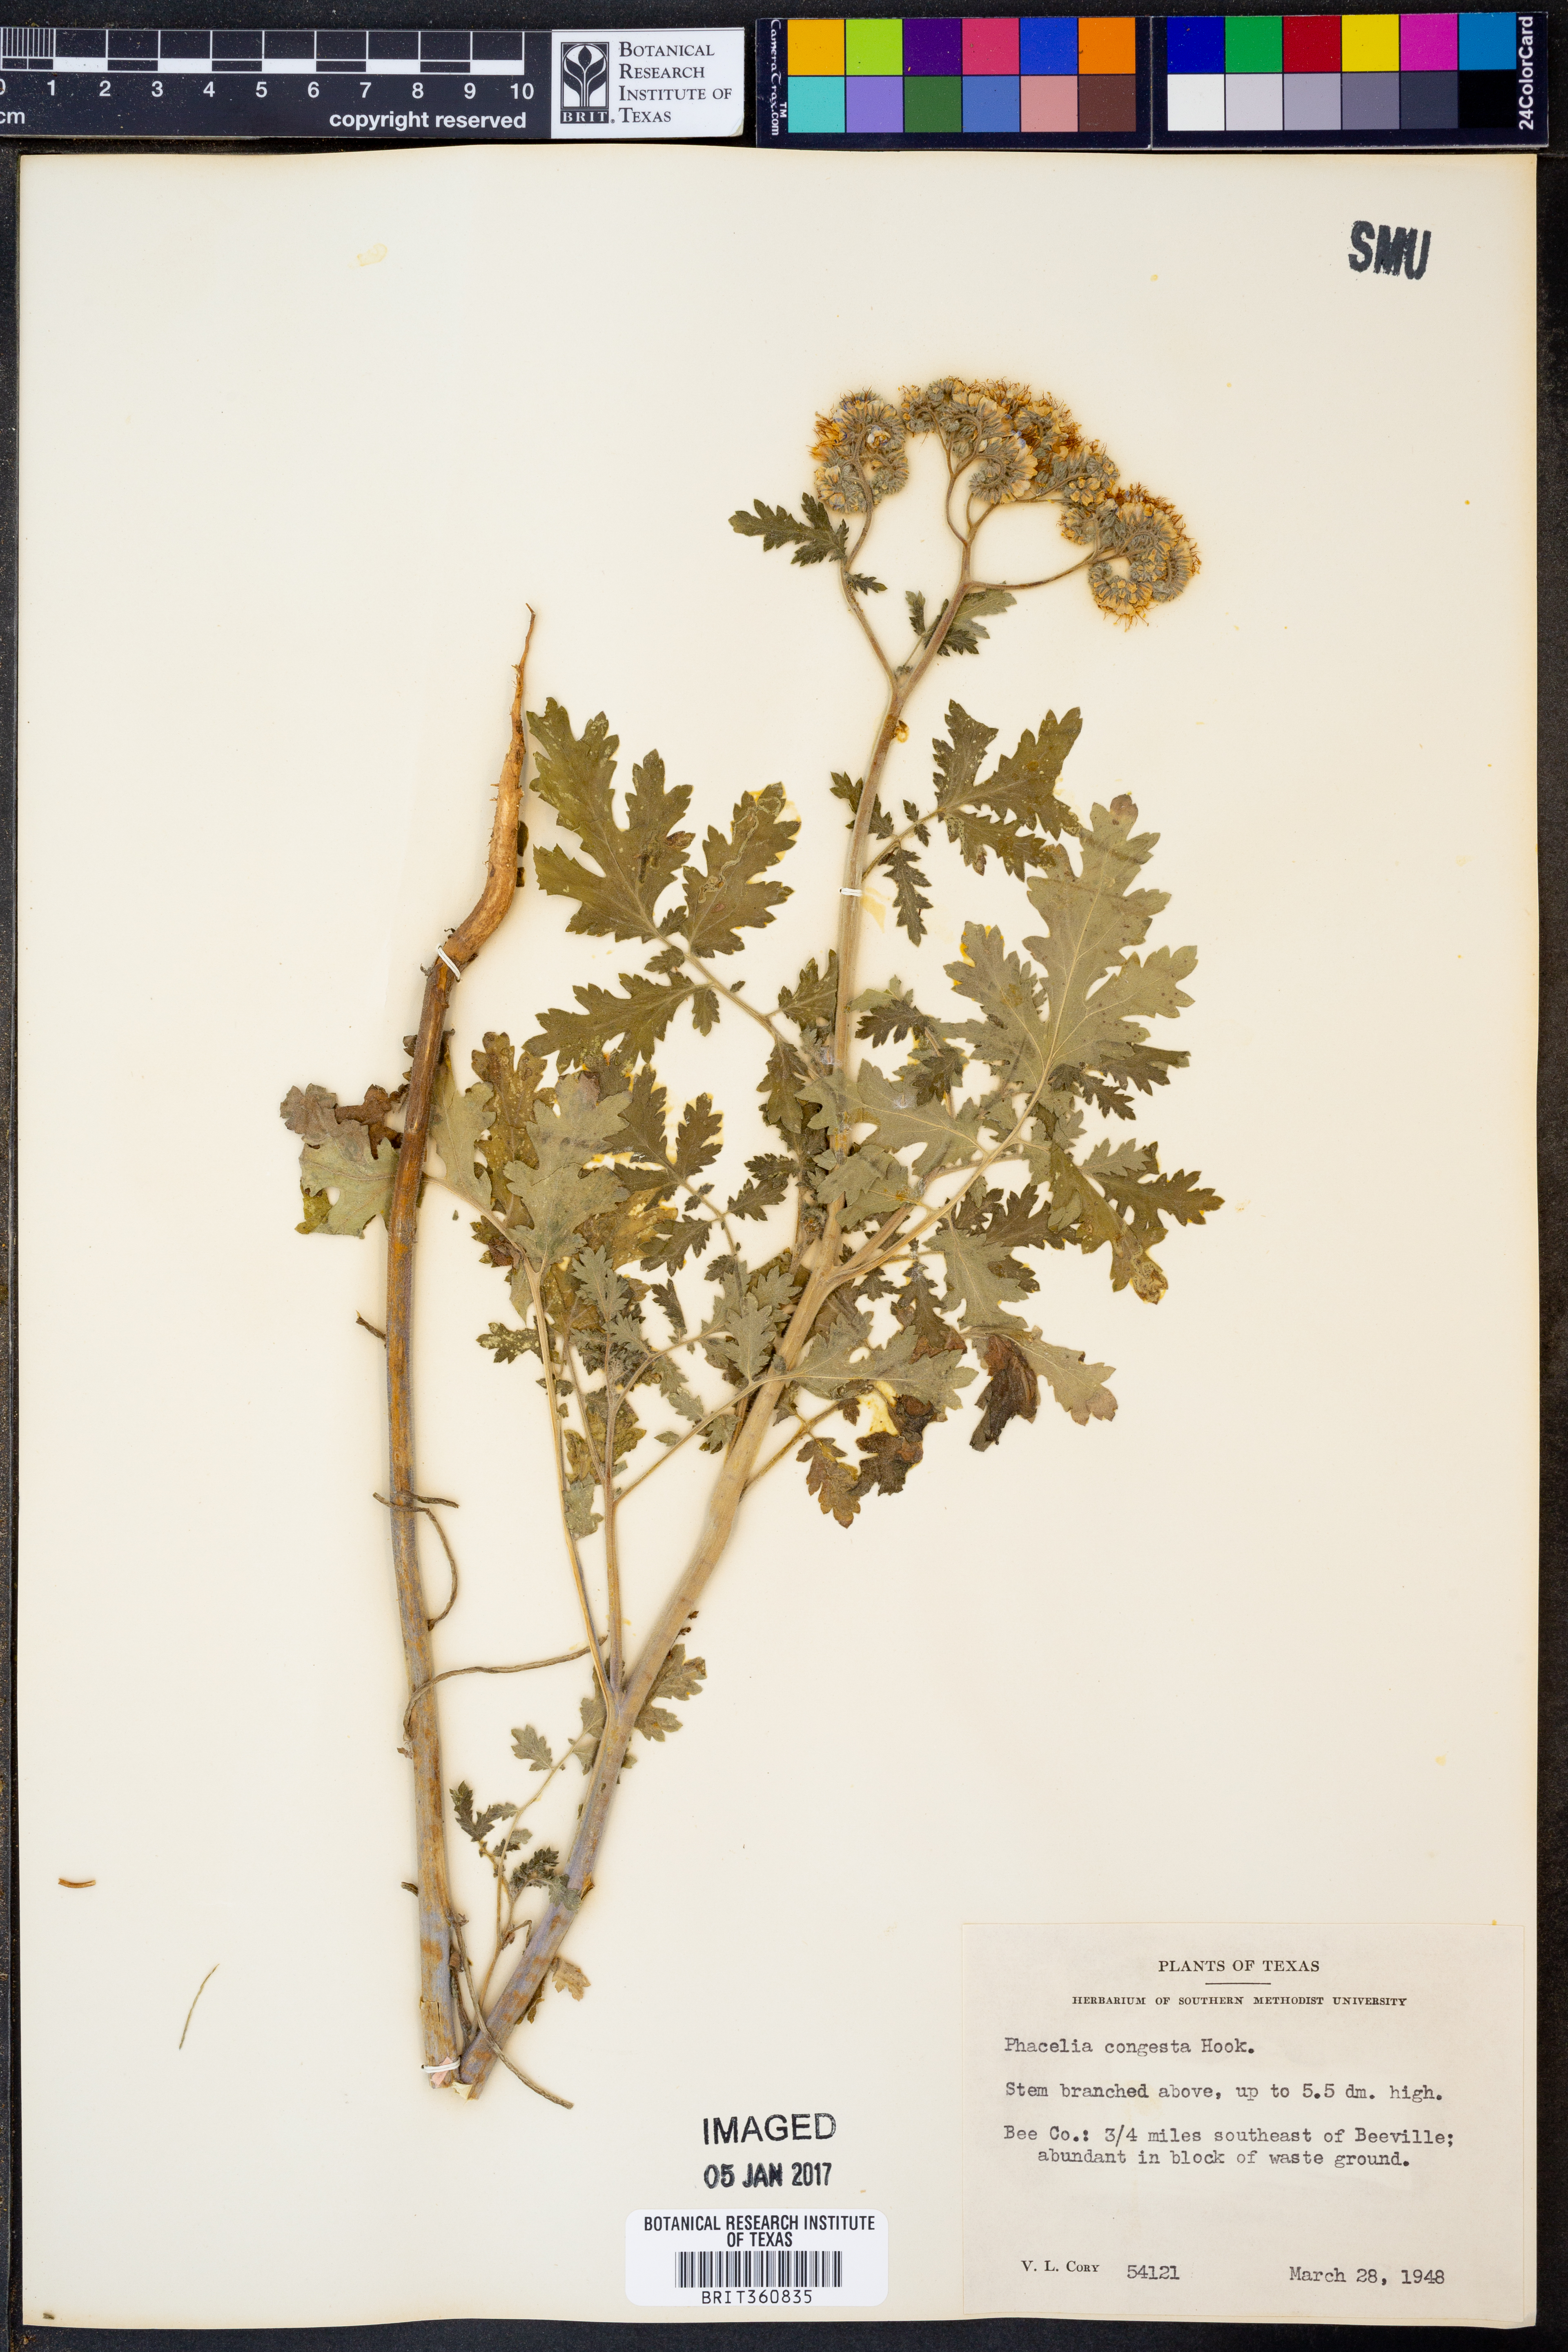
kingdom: Plantae
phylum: Tracheophyta
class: Magnoliopsida
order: Boraginales
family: Hydrophyllaceae
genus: Phacelia
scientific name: Phacelia congesta
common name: Blue curls
